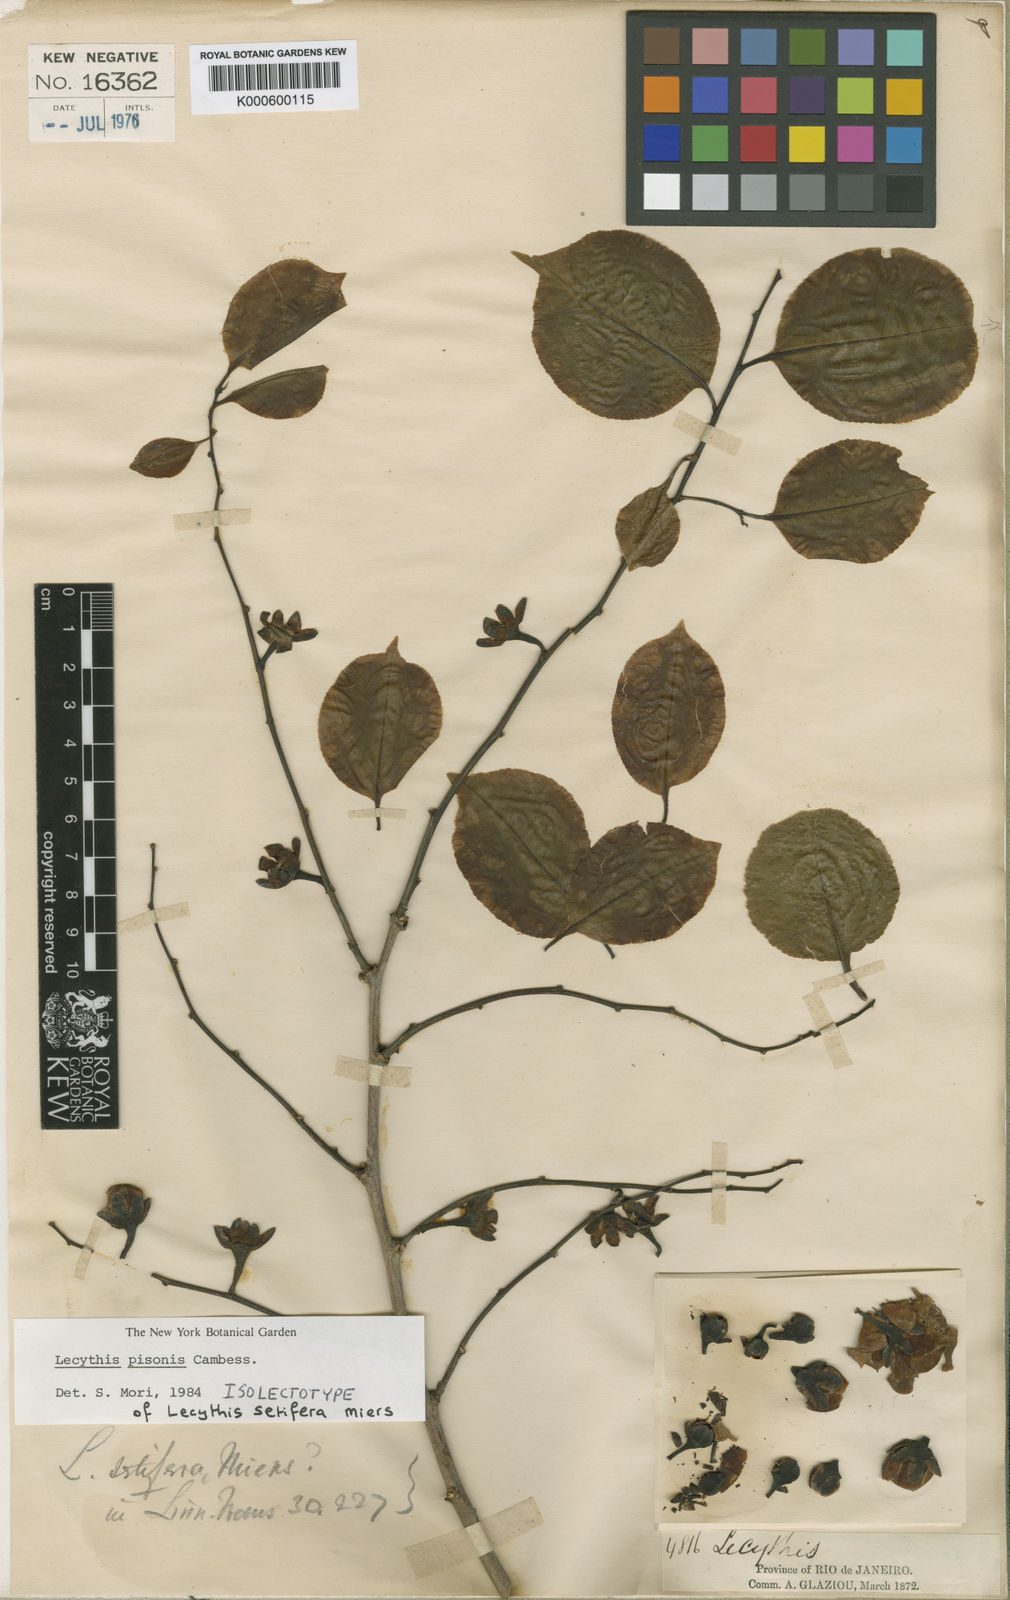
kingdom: Plantae
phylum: Tracheophyta
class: Magnoliopsida
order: Ericales
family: Lecythidaceae
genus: Lecythis
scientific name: Lecythis pisonis
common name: Paradise-nut
